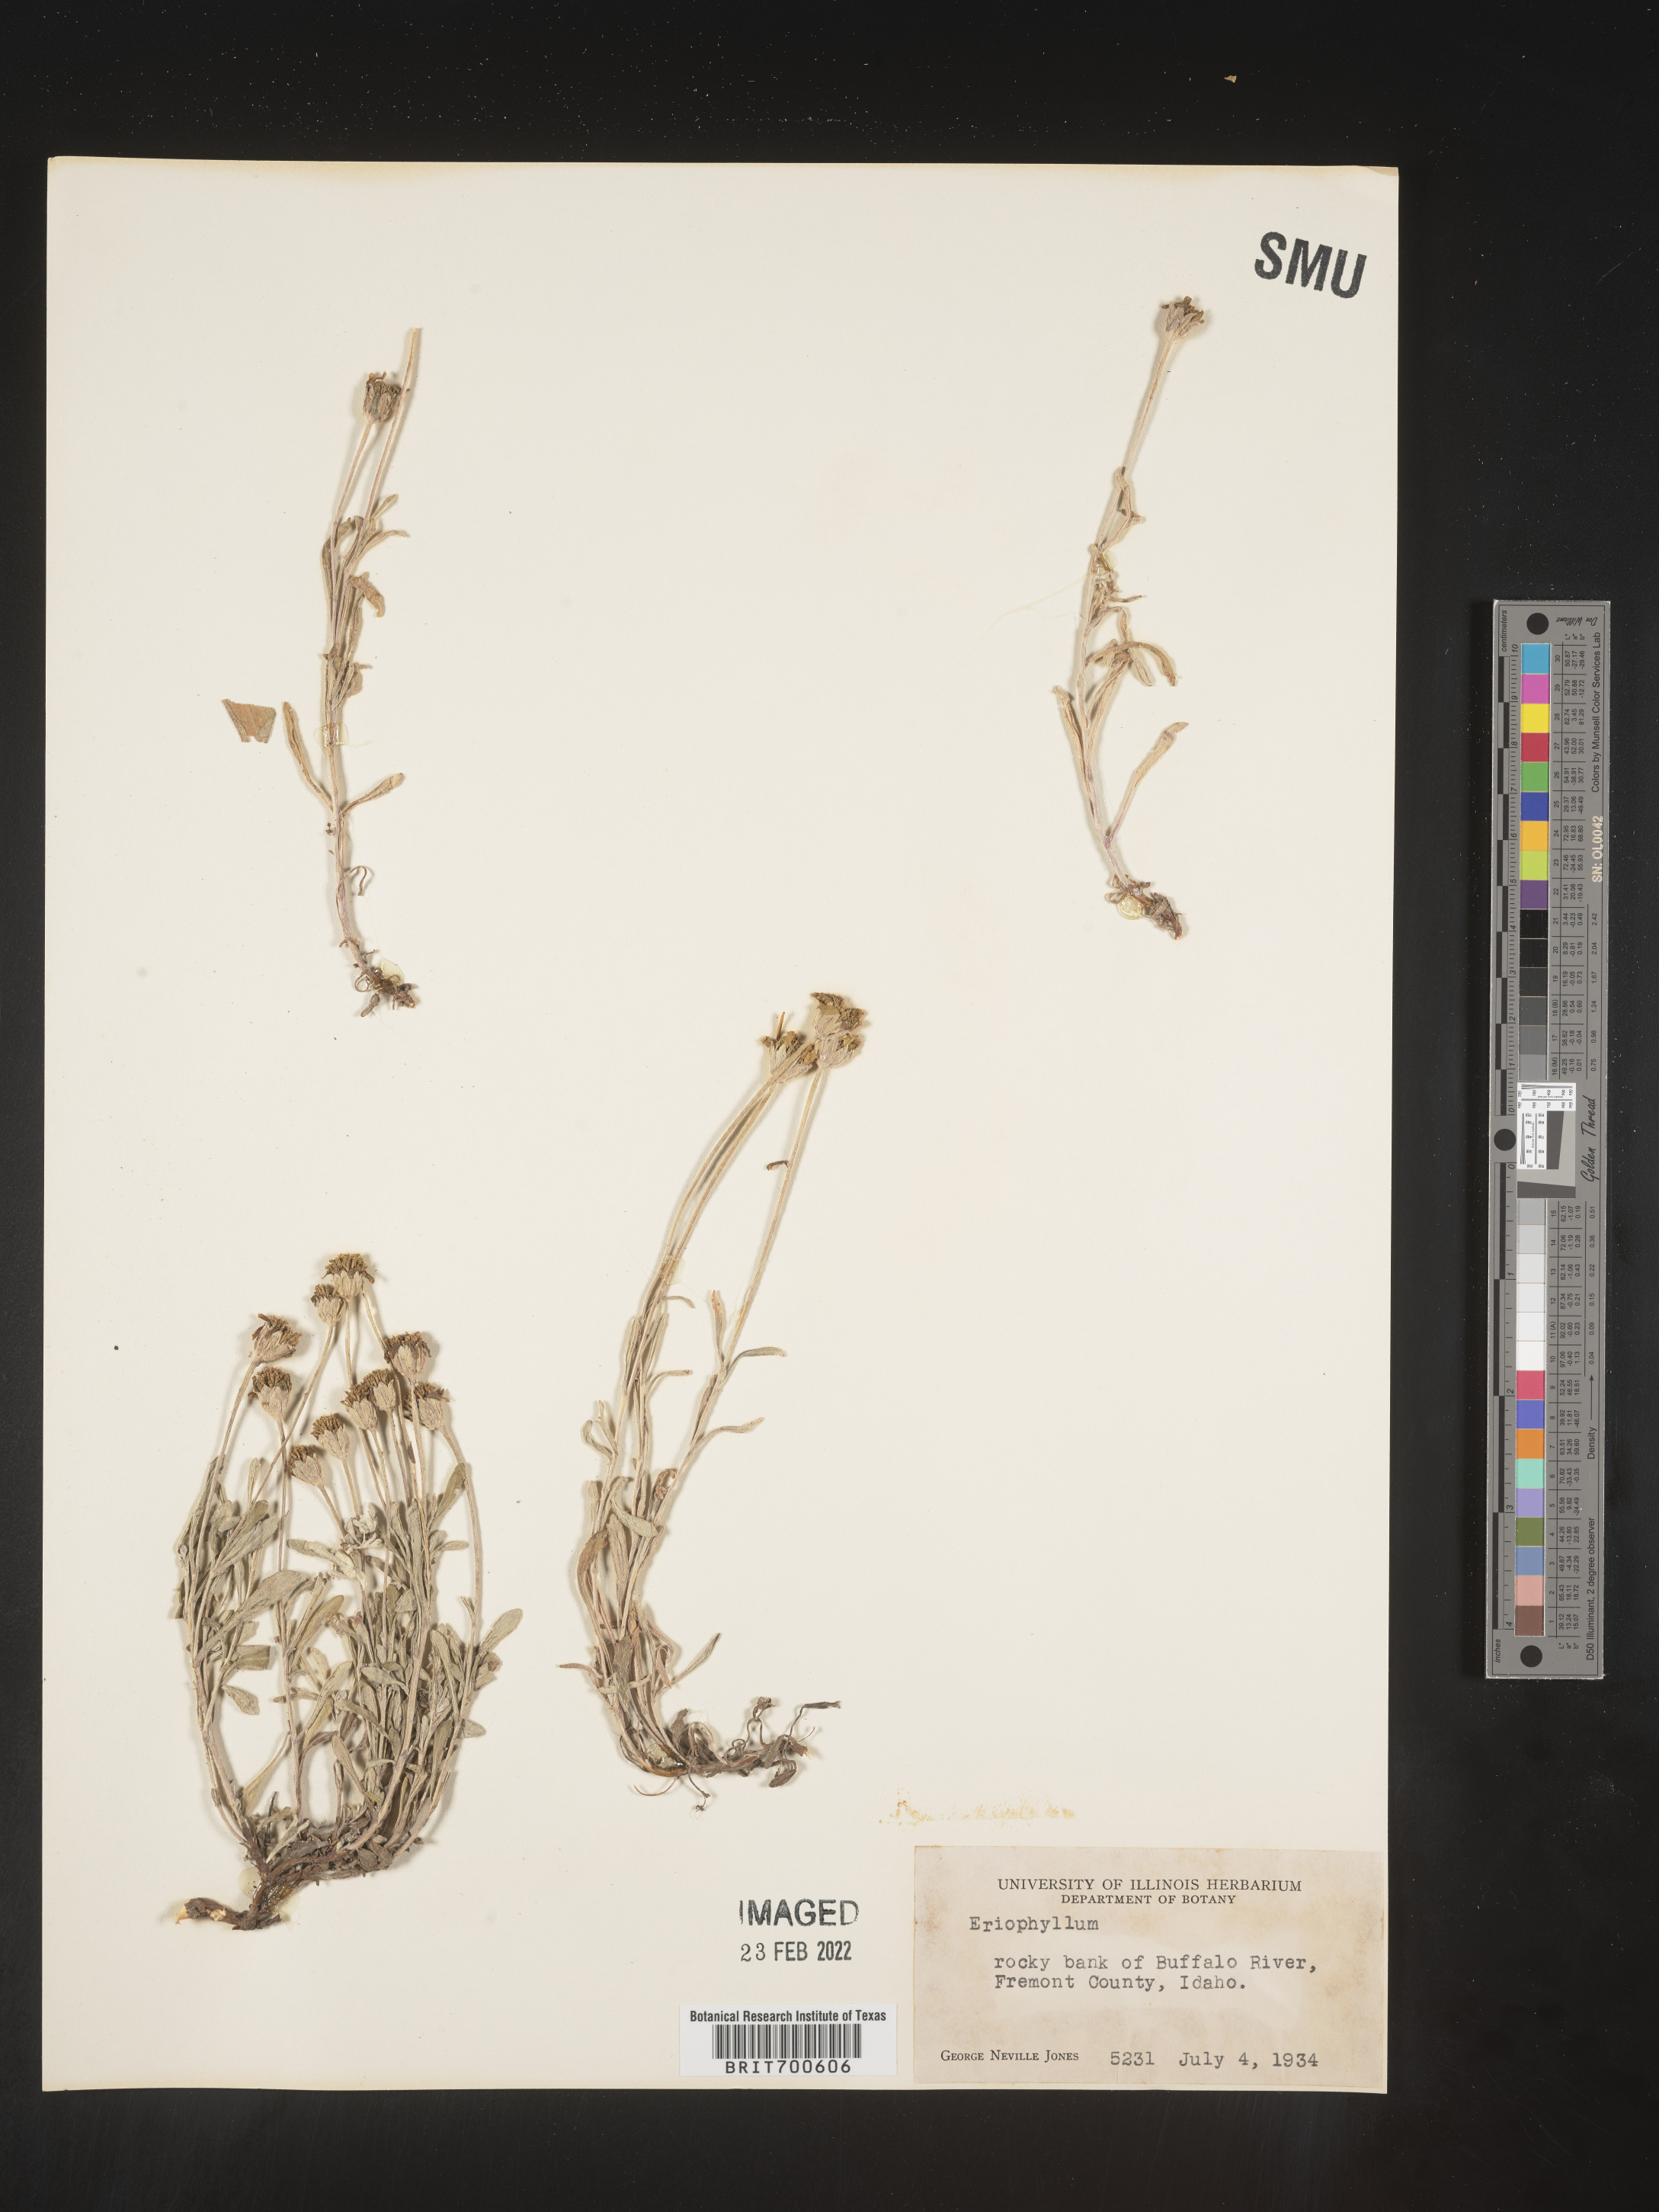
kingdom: Plantae
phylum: Tracheophyta
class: Magnoliopsida
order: Asterales
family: Asteraceae
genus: Eriophyllum
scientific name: Eriophyllum
